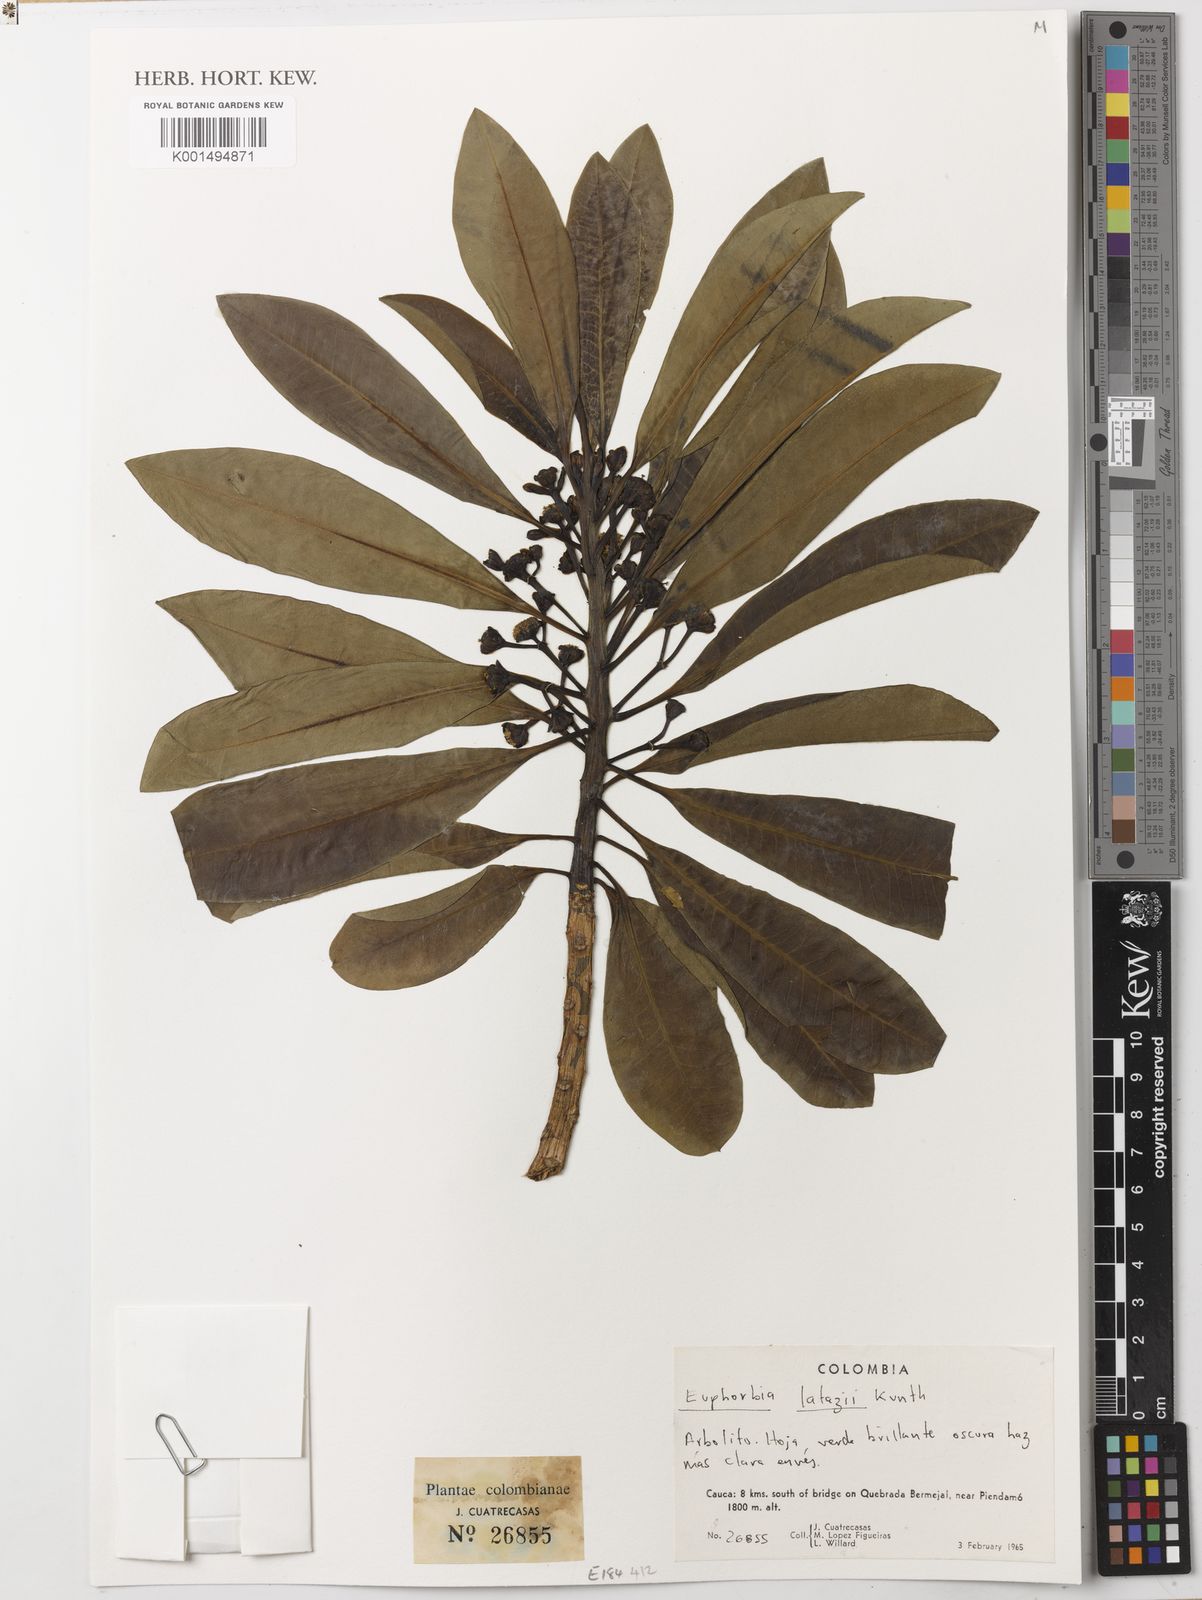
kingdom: Plantae
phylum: Tracheophyta
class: Magnoliopsida
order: Malpighiales
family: Euphorbiaceae
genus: Euphorbia
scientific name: Euphorbia laurifolia
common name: Lechero
